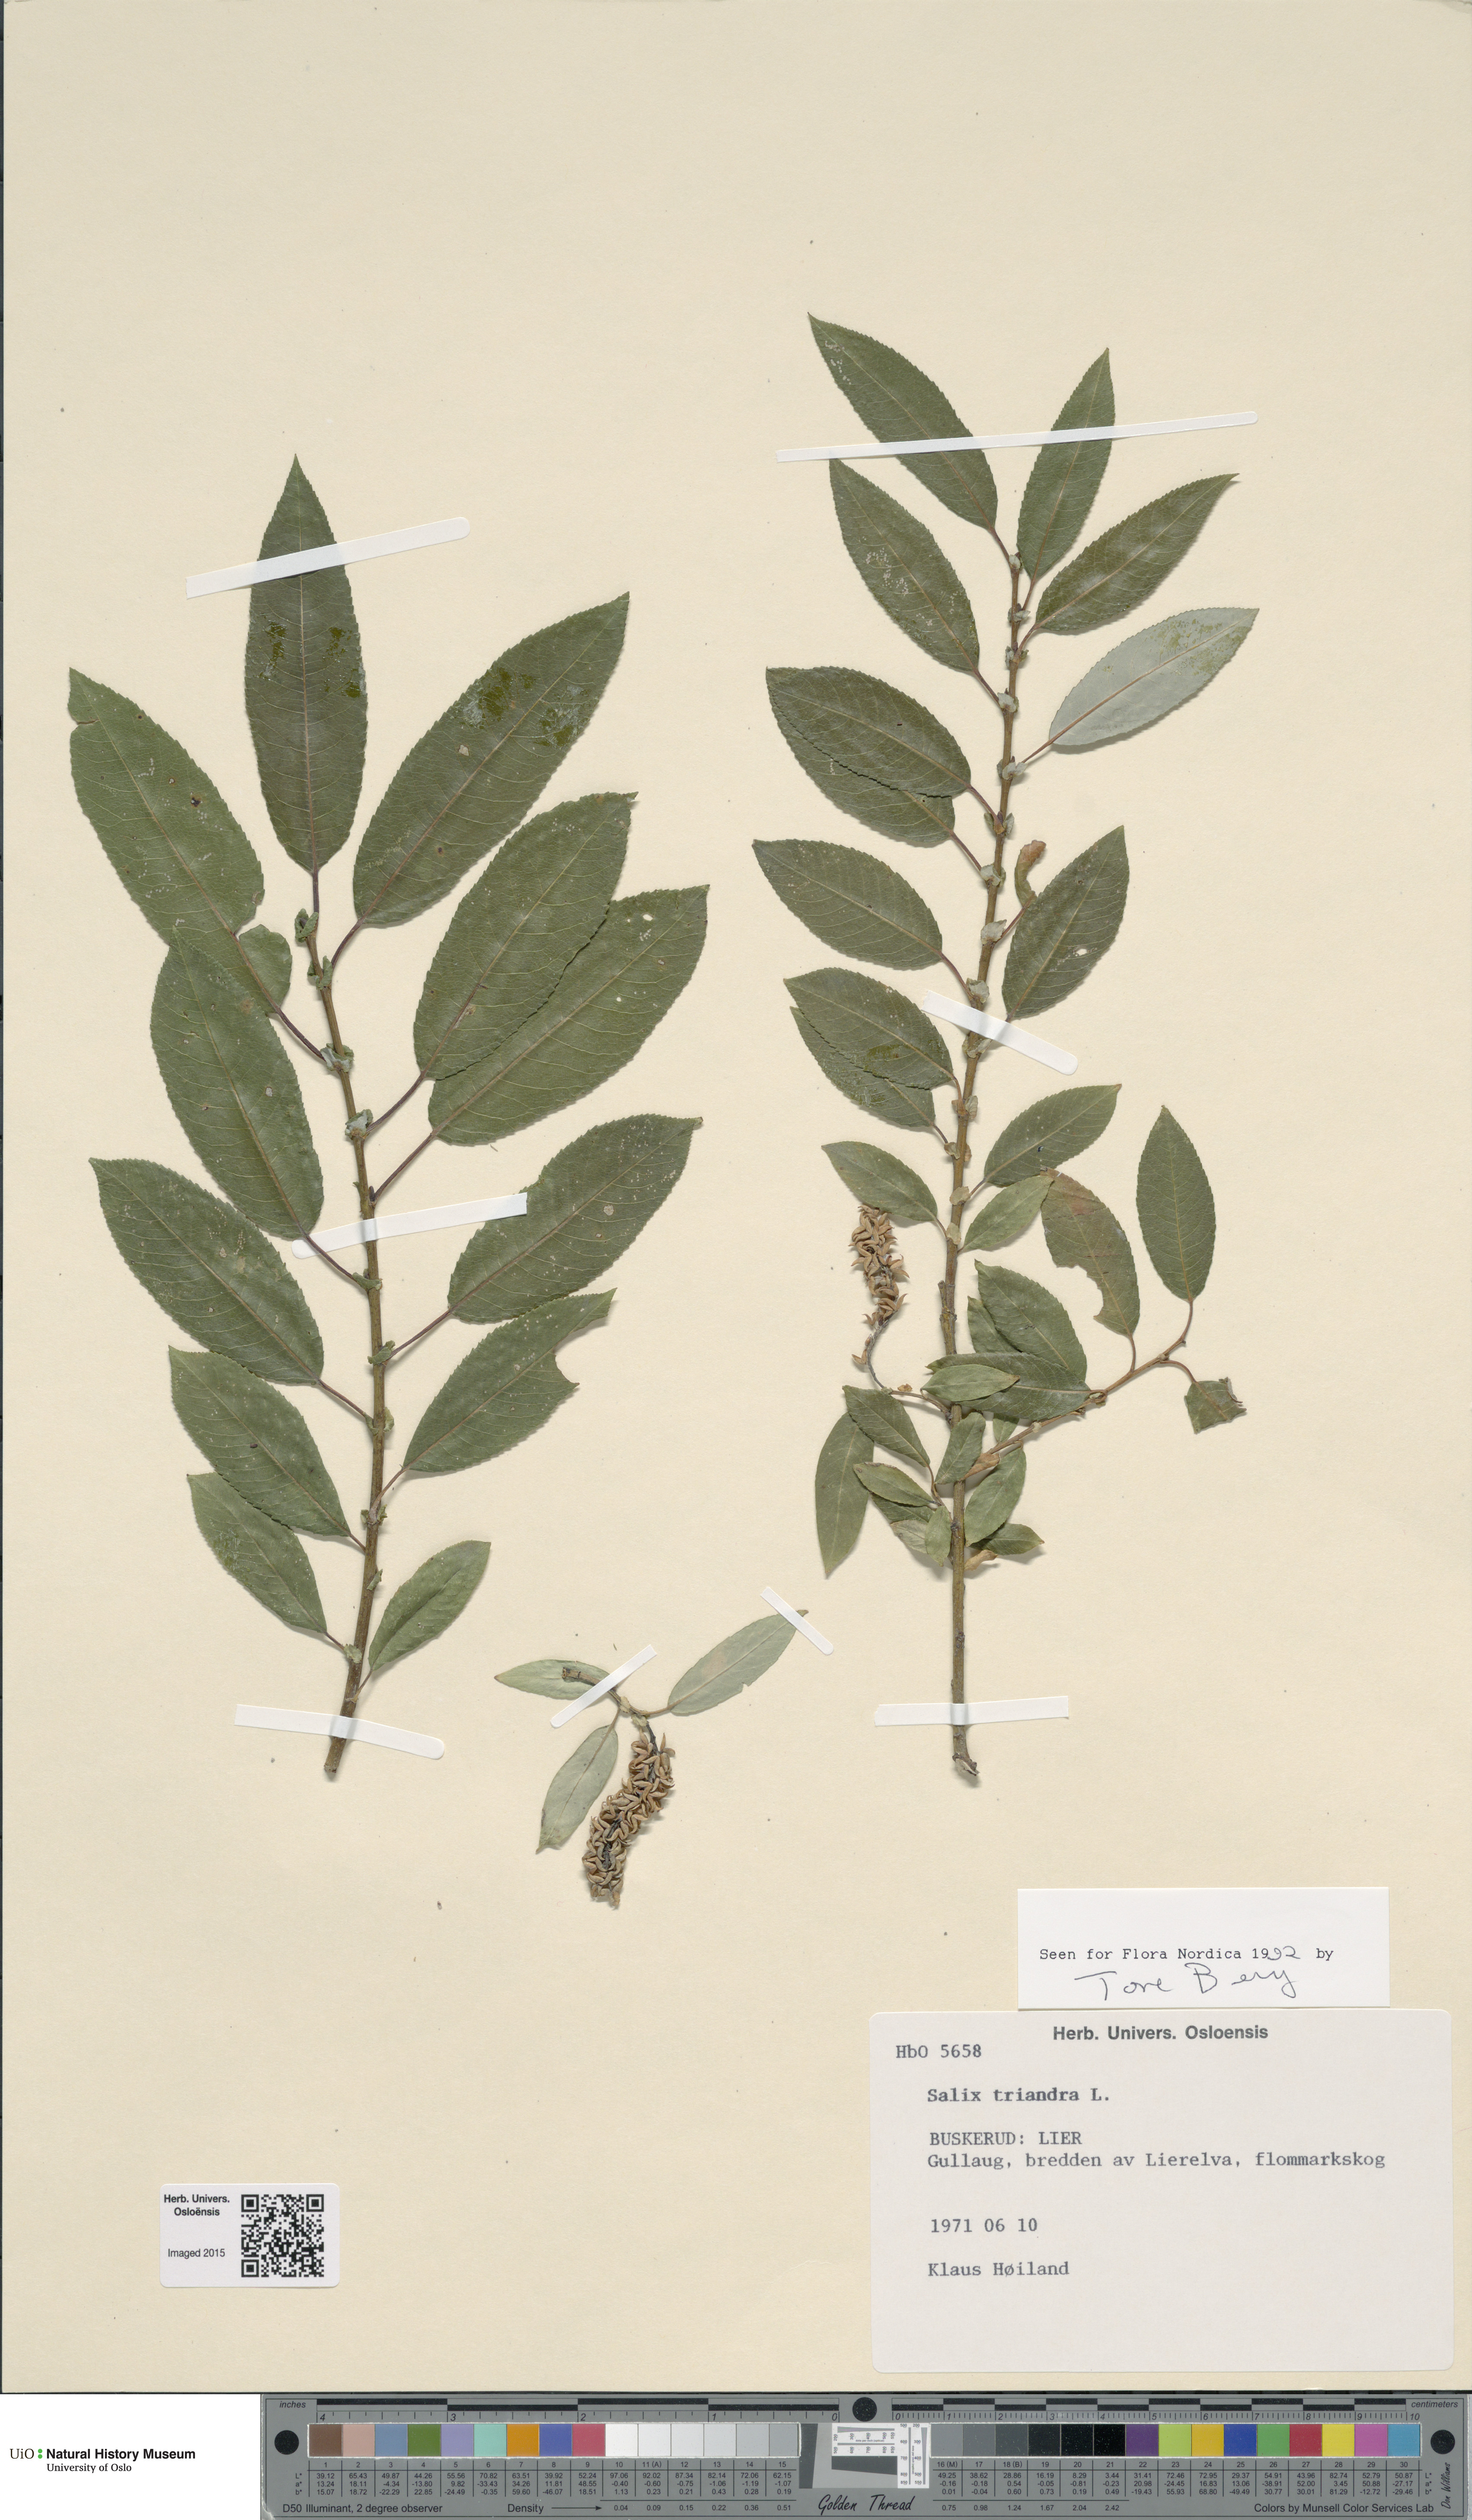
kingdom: Plantae
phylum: Tracheophyta
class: Magnoliopsida
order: Malpighiales
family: Salicaceae
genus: Salix
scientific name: Salix triandra
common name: Almond willow
